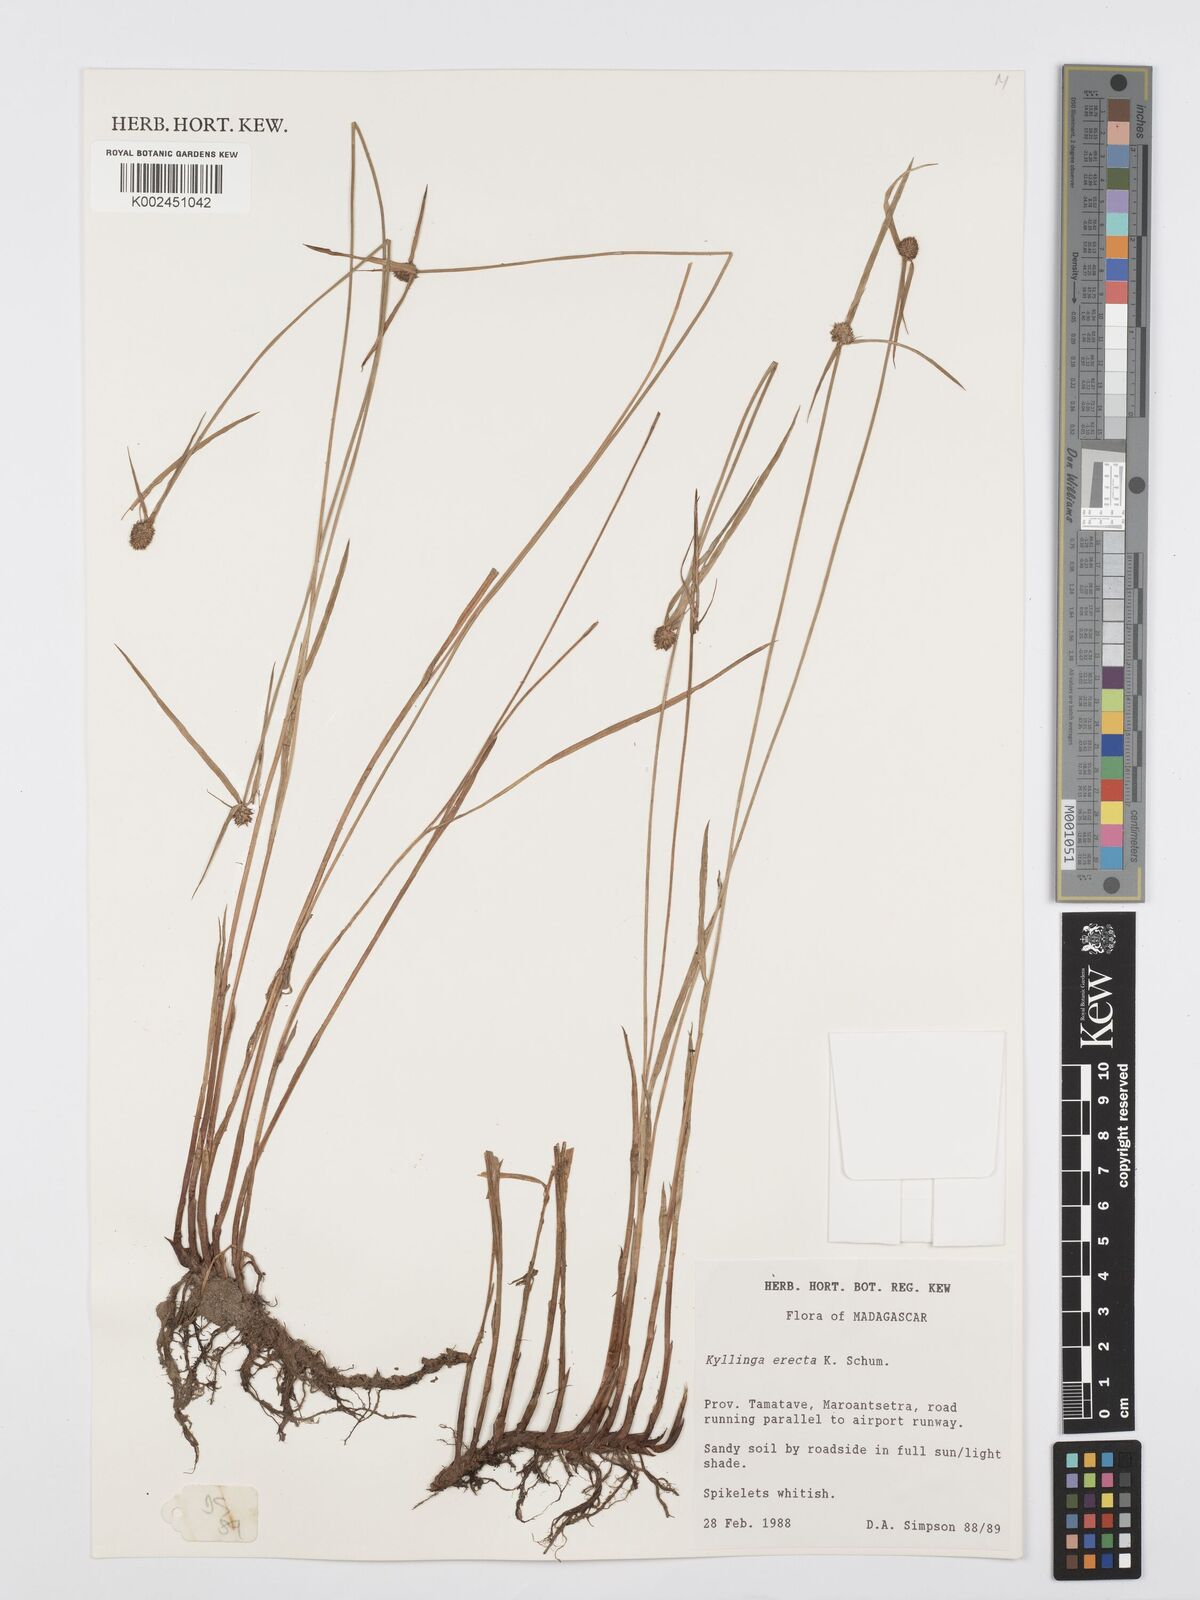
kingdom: Plantae
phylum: Tracheophyta
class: Liliopsida
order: Poales
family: Cyperaceae
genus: Cyperus
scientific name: Cyperus erectus
